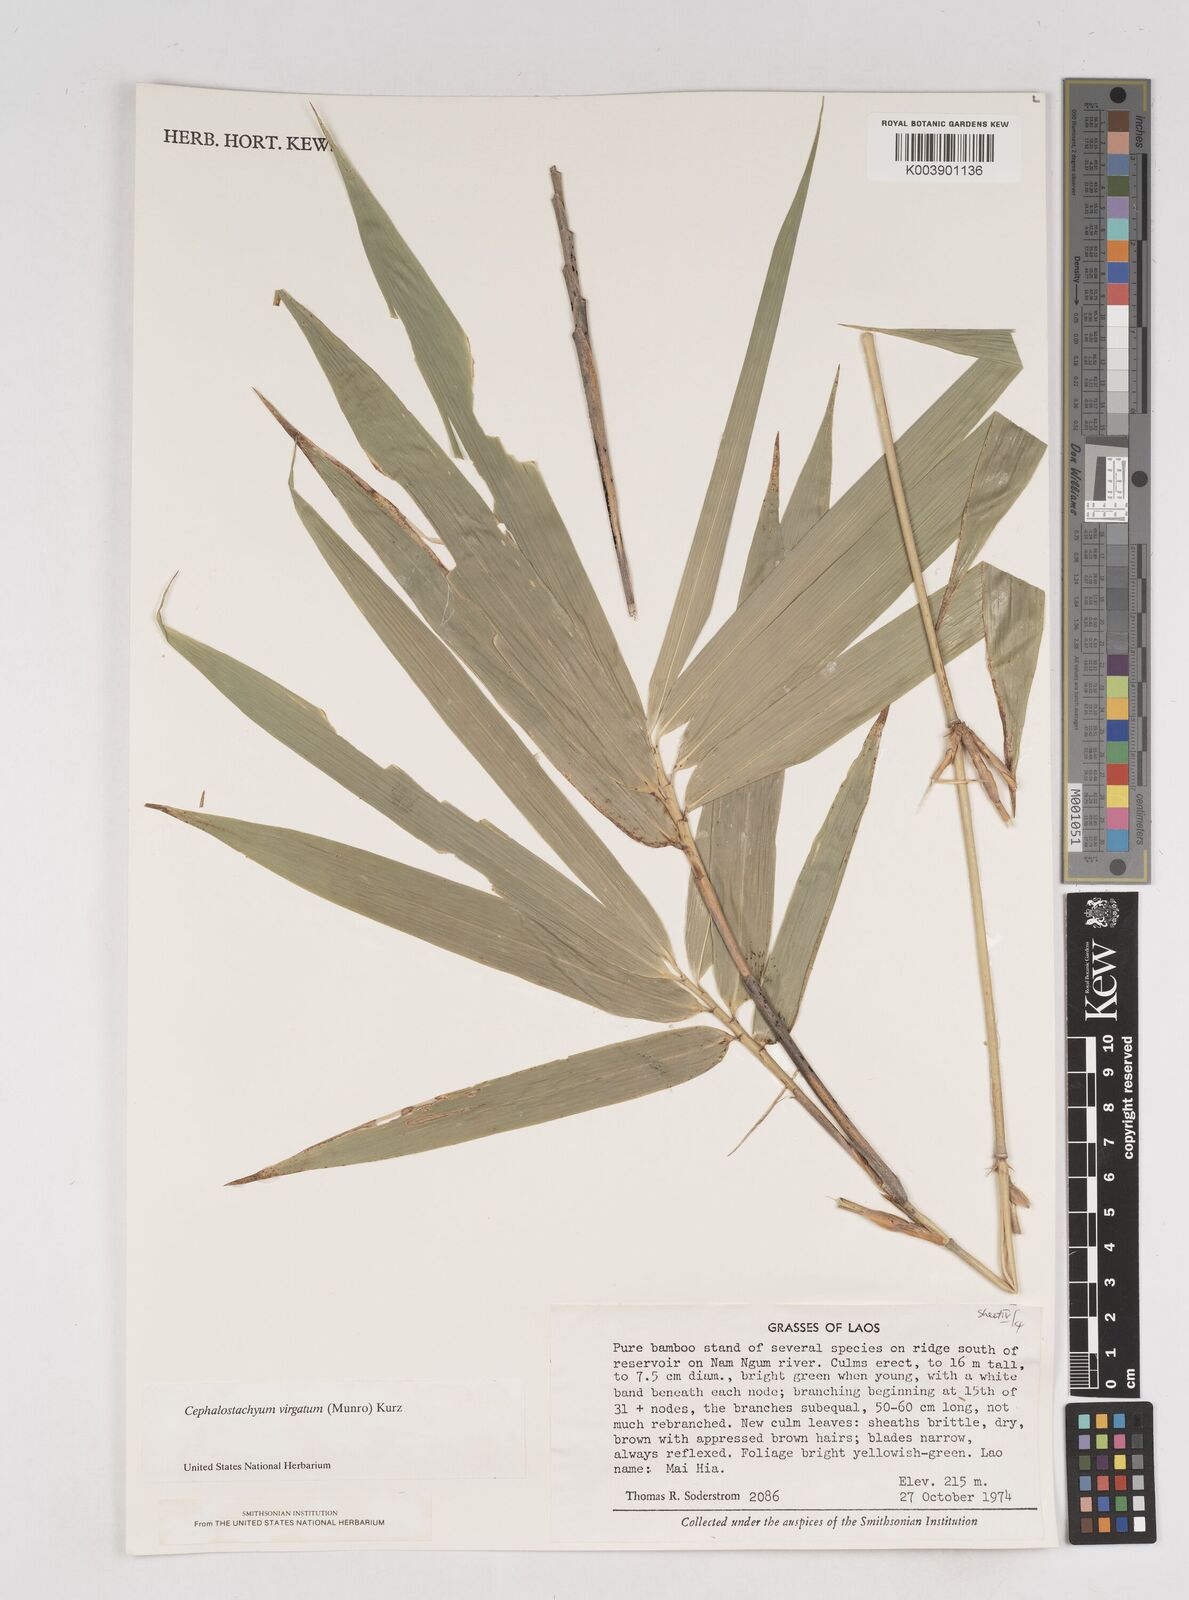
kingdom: Plantae
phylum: Tracheophyta
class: Liliopsida
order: Poales
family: Poaceae
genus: Schizostachyum
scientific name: Schizostachyum virgatum
